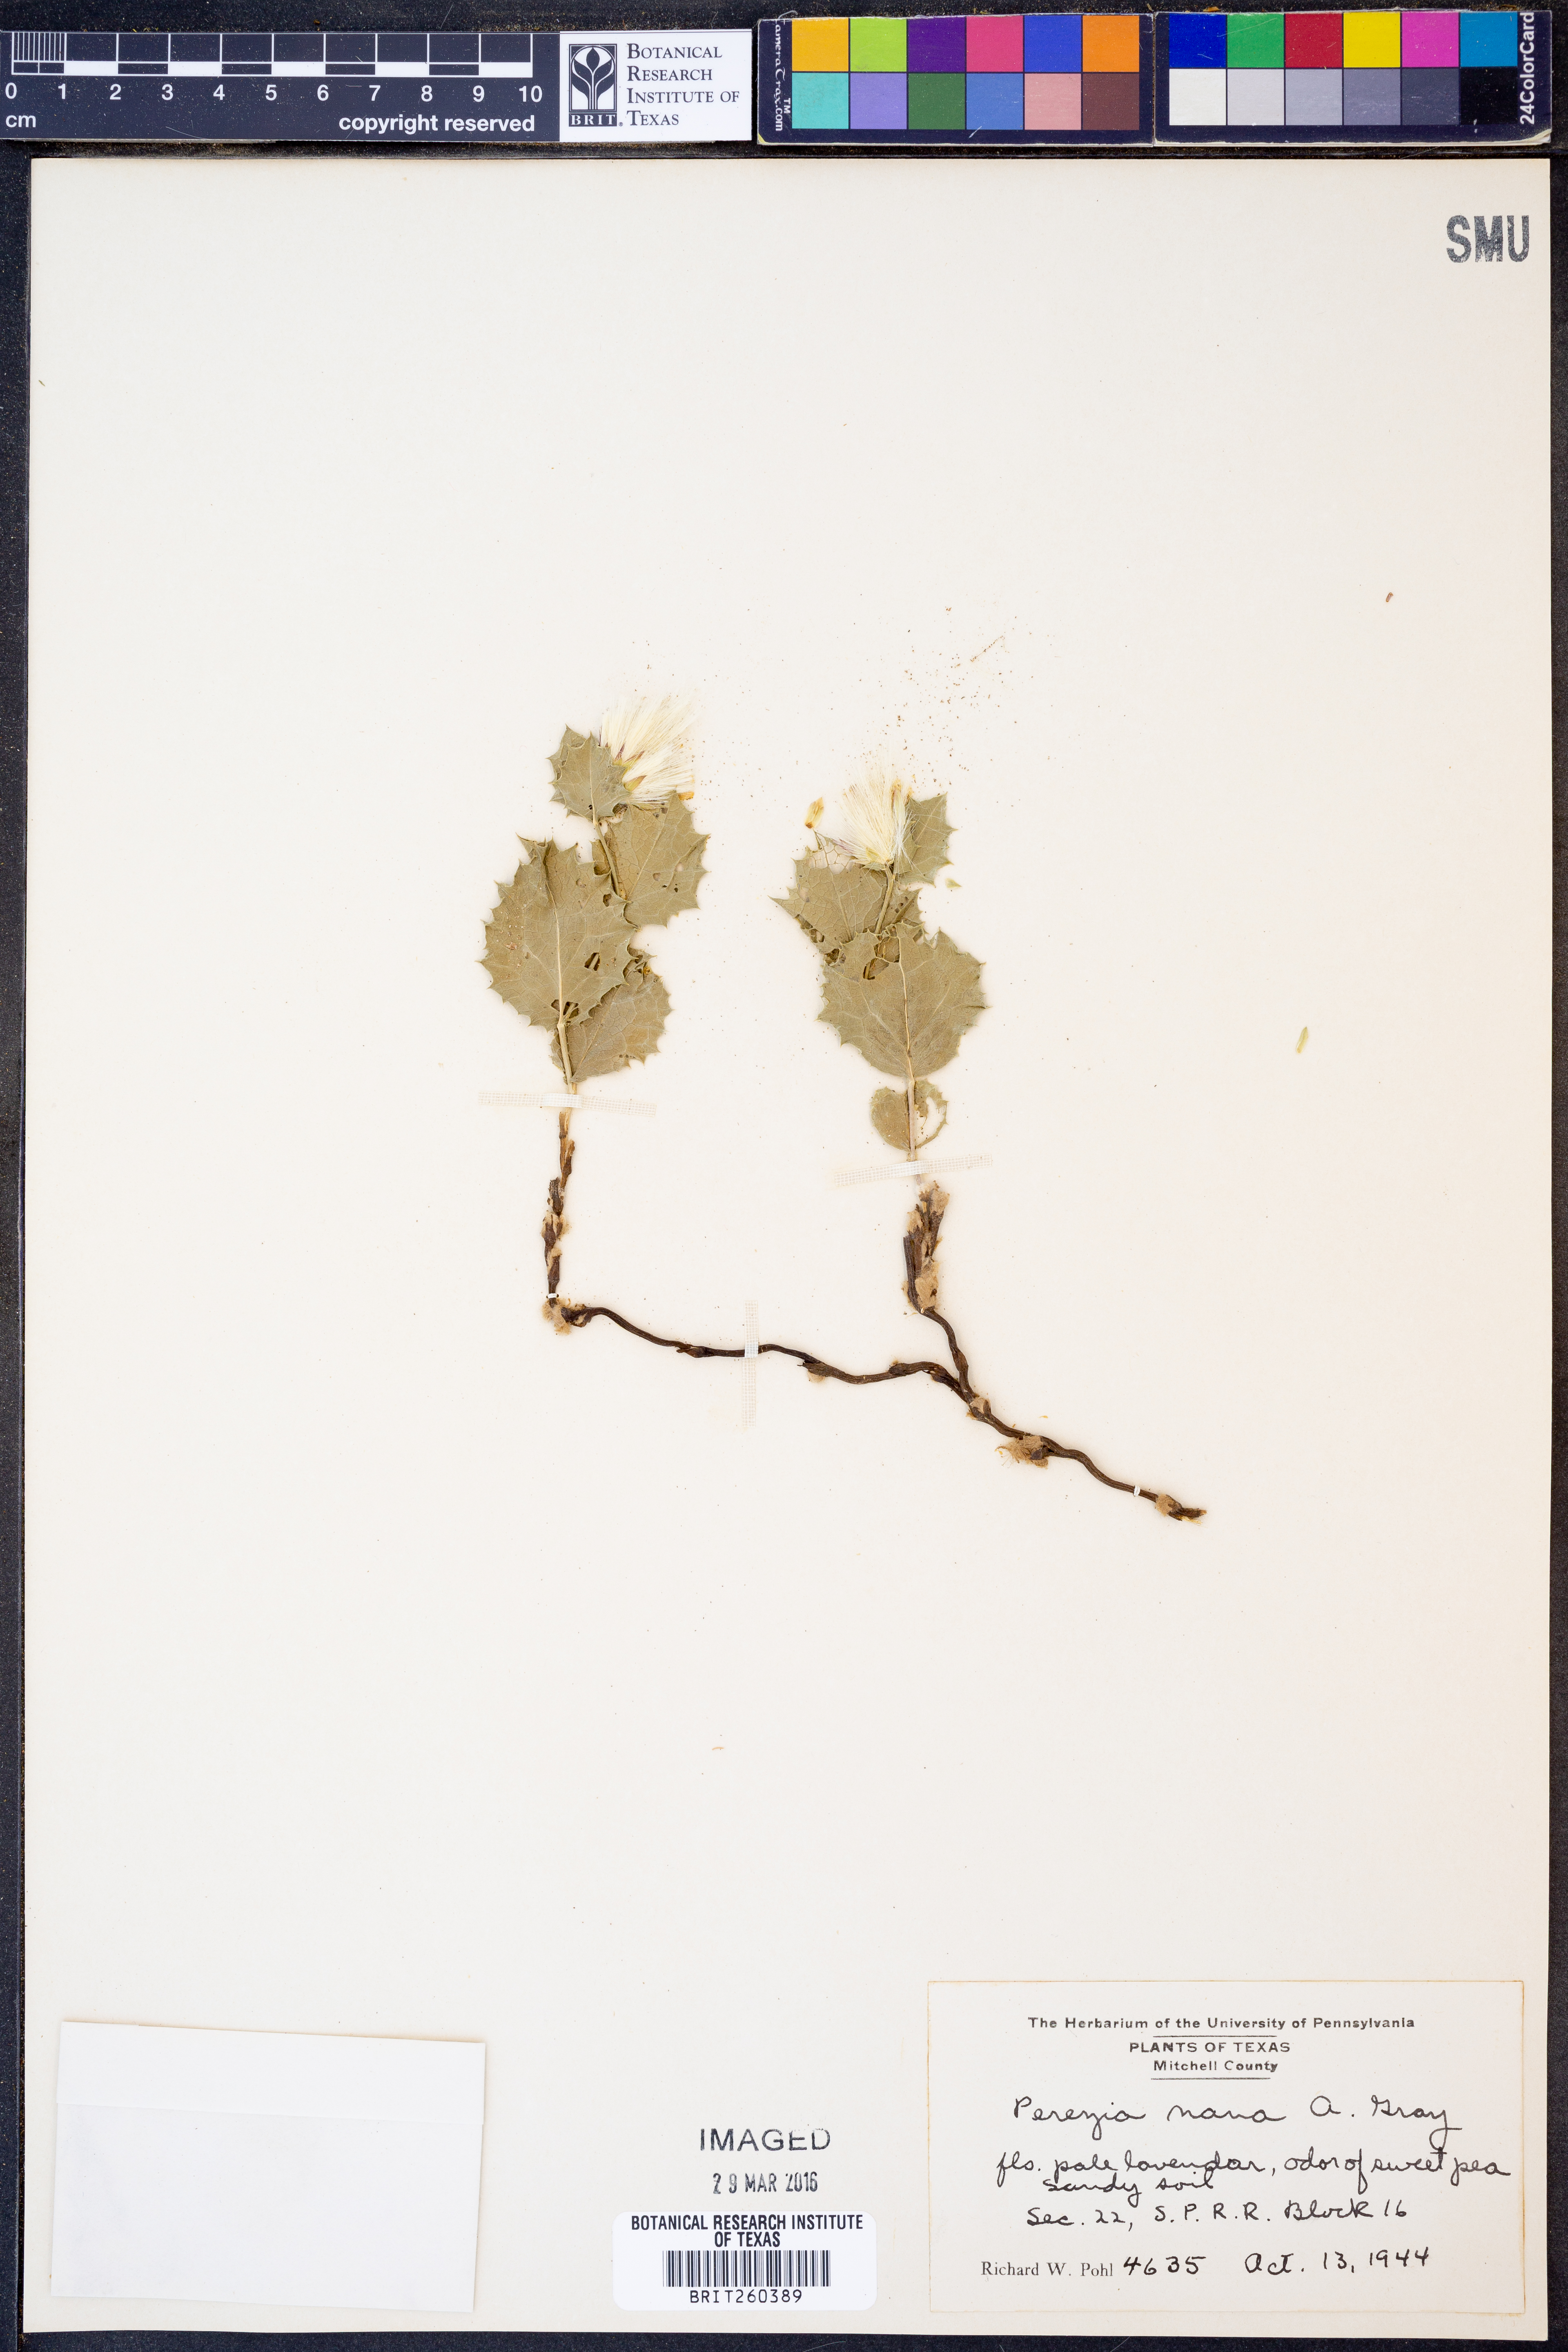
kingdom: Plantae
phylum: Tracheophyta
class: Magnoliopsida
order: Asterales
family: Asteraceae
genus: Acourtia
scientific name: Acourtia nana
